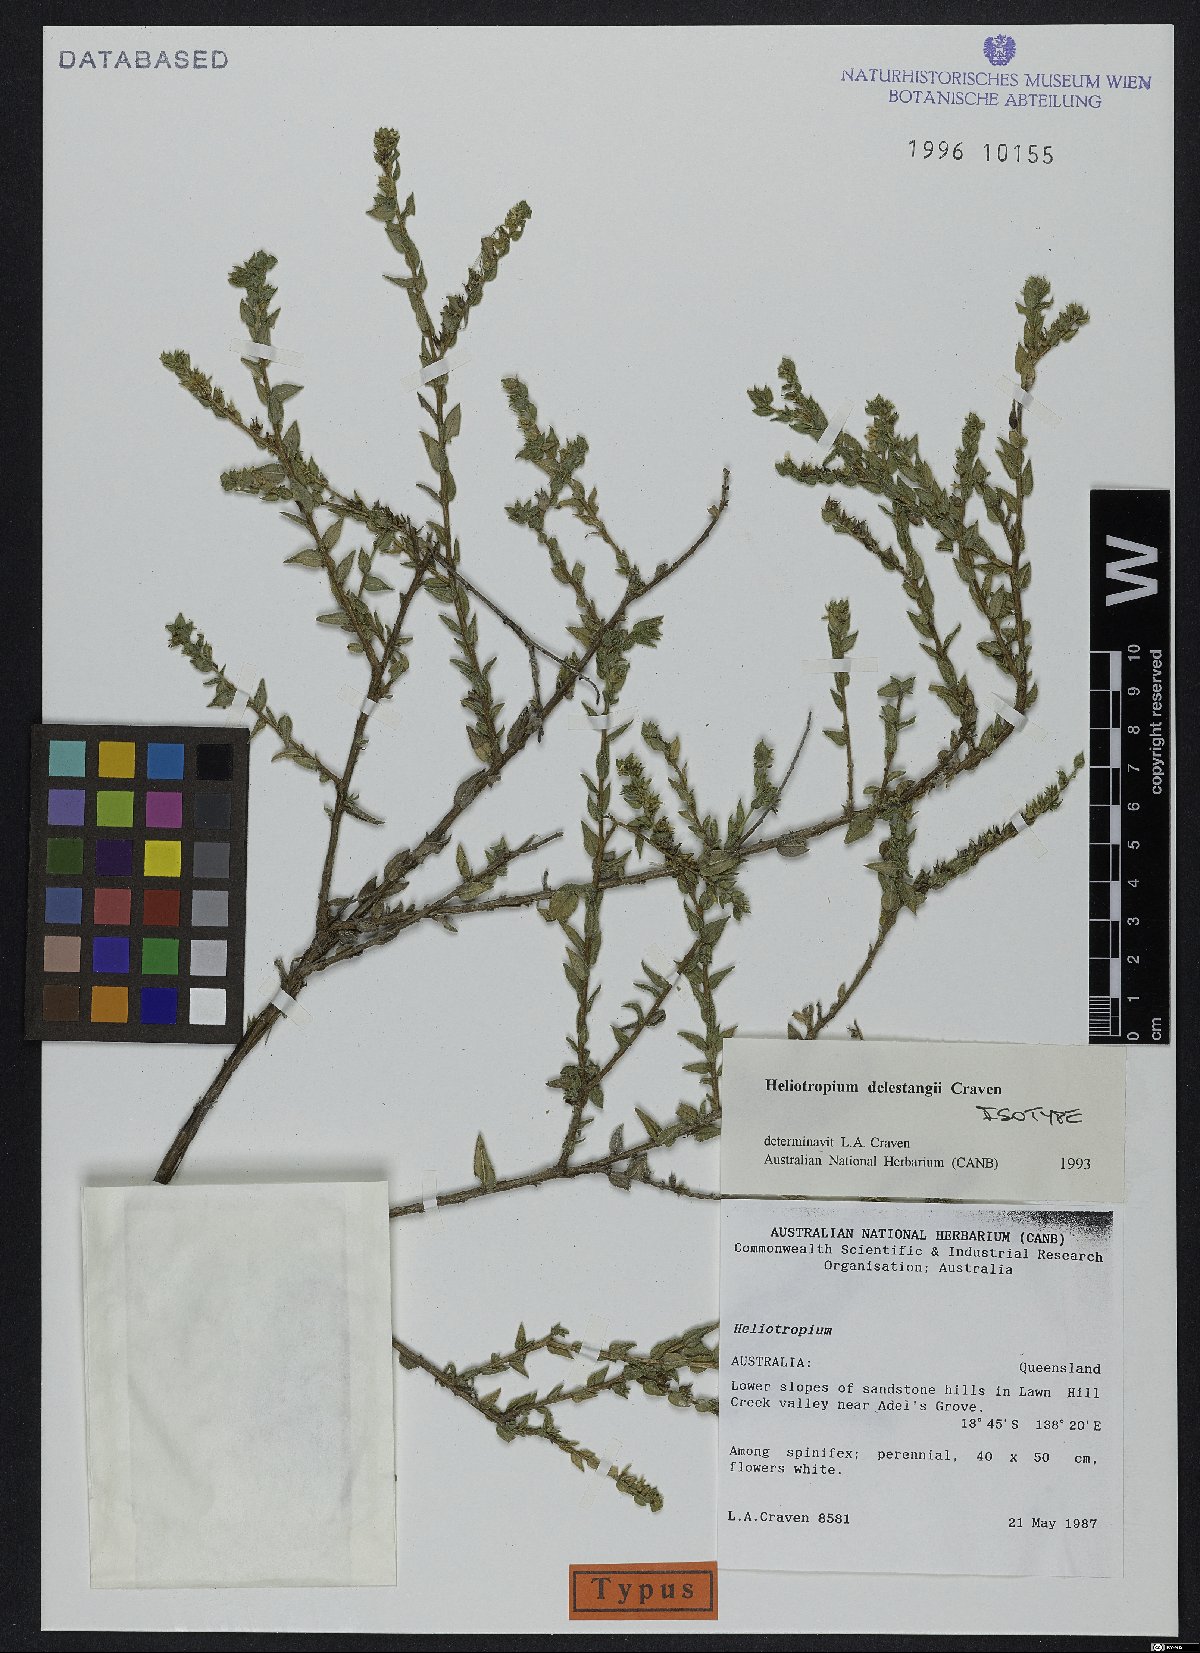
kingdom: Plantae
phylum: Tracheophyta
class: Magnoliopsida
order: Boraginales
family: Heliotropiaceae
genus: Euploca
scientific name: Euploca delestangii
